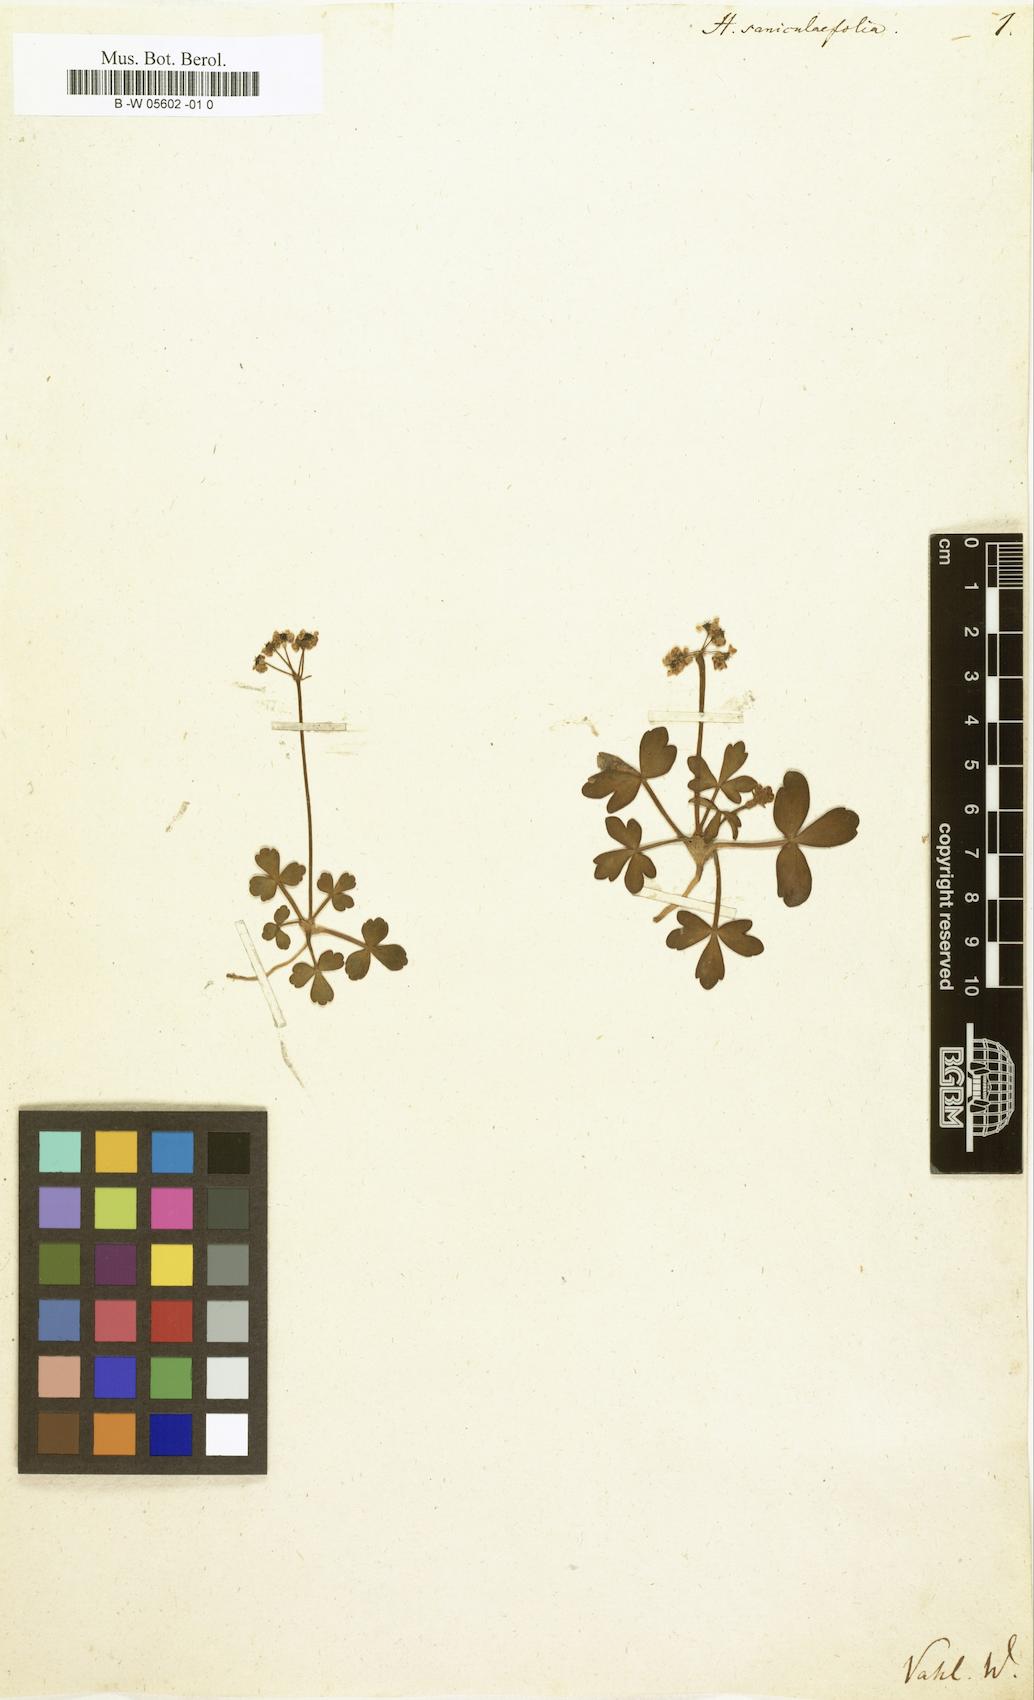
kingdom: Plantae
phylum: Tracheophyta
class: Magnoliopsida
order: Apiales
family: Apiaceae
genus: Diposis
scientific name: Diposis saniculifolia
